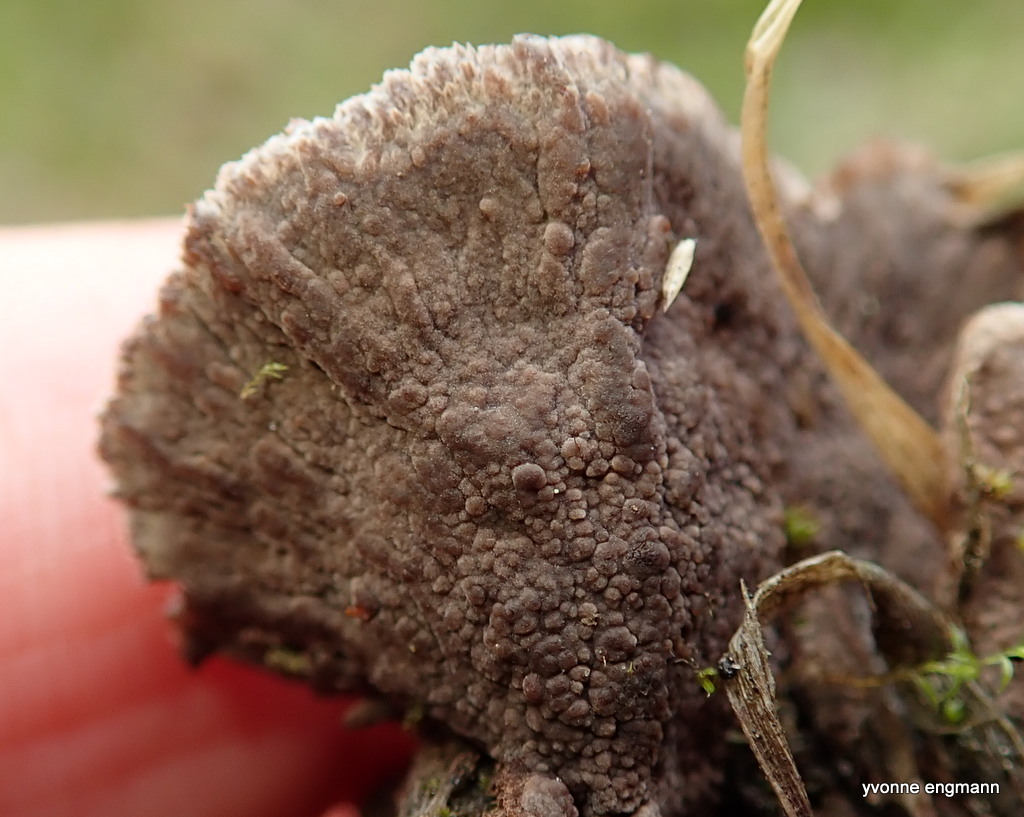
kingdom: Fungi
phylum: Basidiomycota
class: Agaricomycetes
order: Thelephorales
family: Thelephoraceae
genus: Thelephora
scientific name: Thelephora terrestris
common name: fliget frynsesvamp
